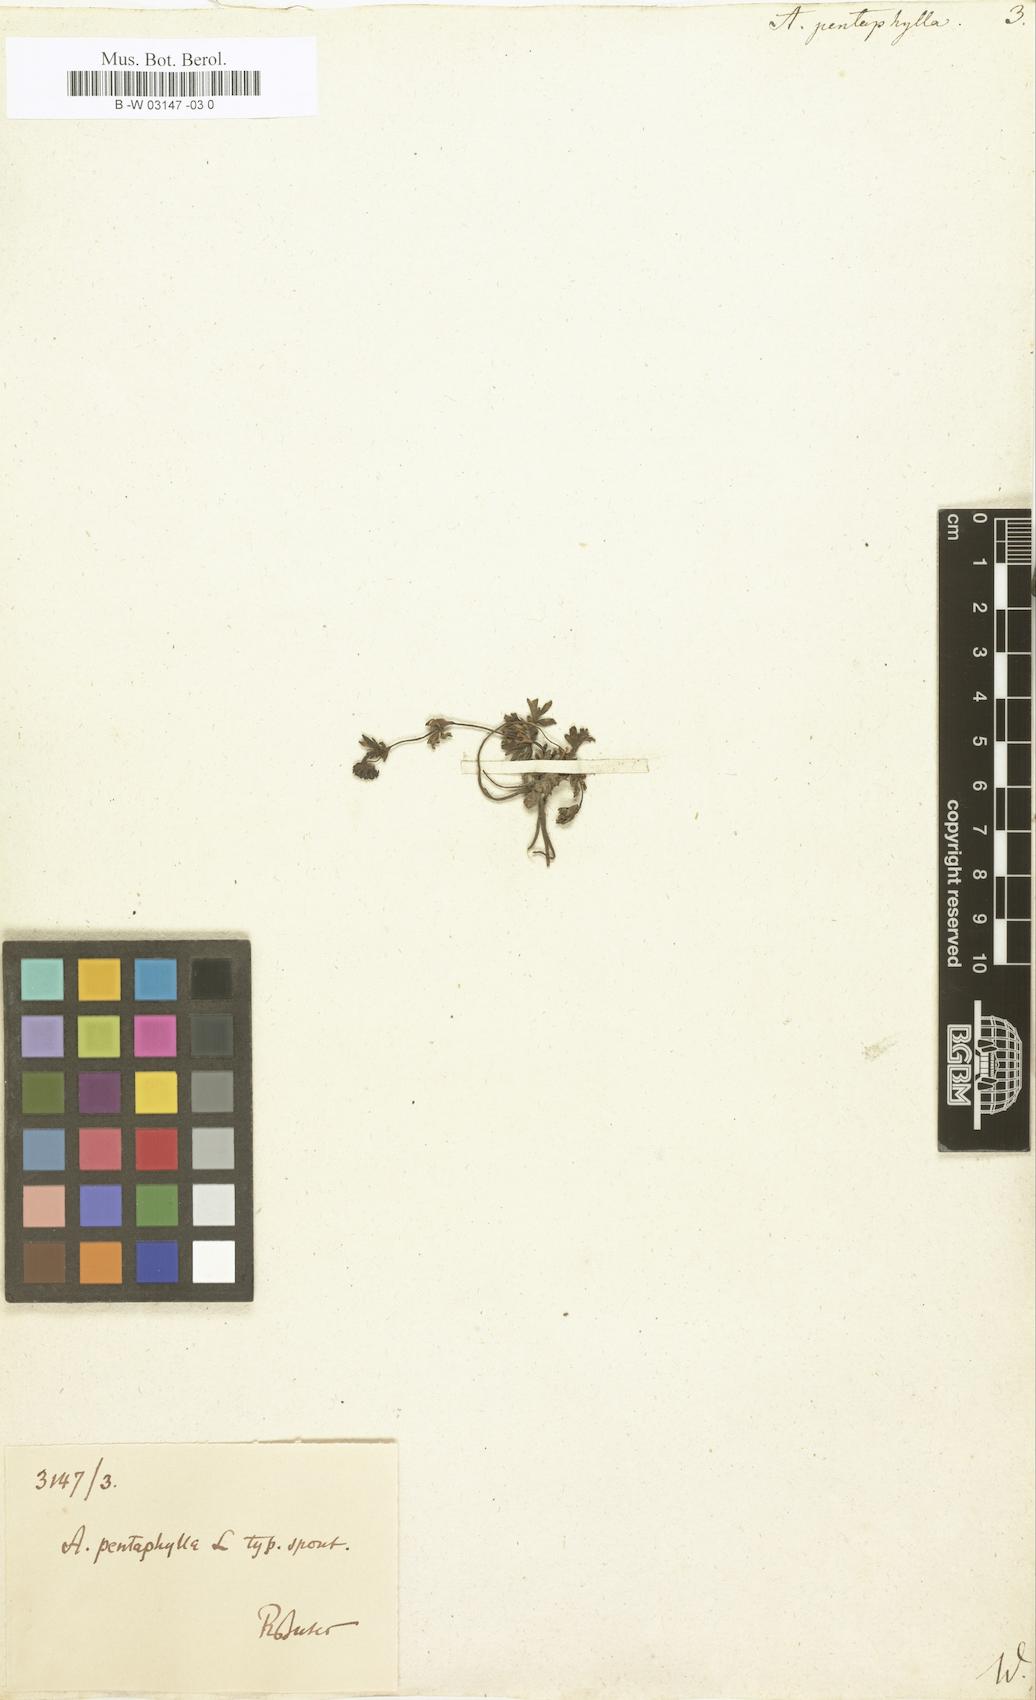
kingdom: Plantae
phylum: Tracheophyta
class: Magnoliopsida
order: Rosales
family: Rosaceae
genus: Alchemilla
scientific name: Alchemilla pentaphyllea
